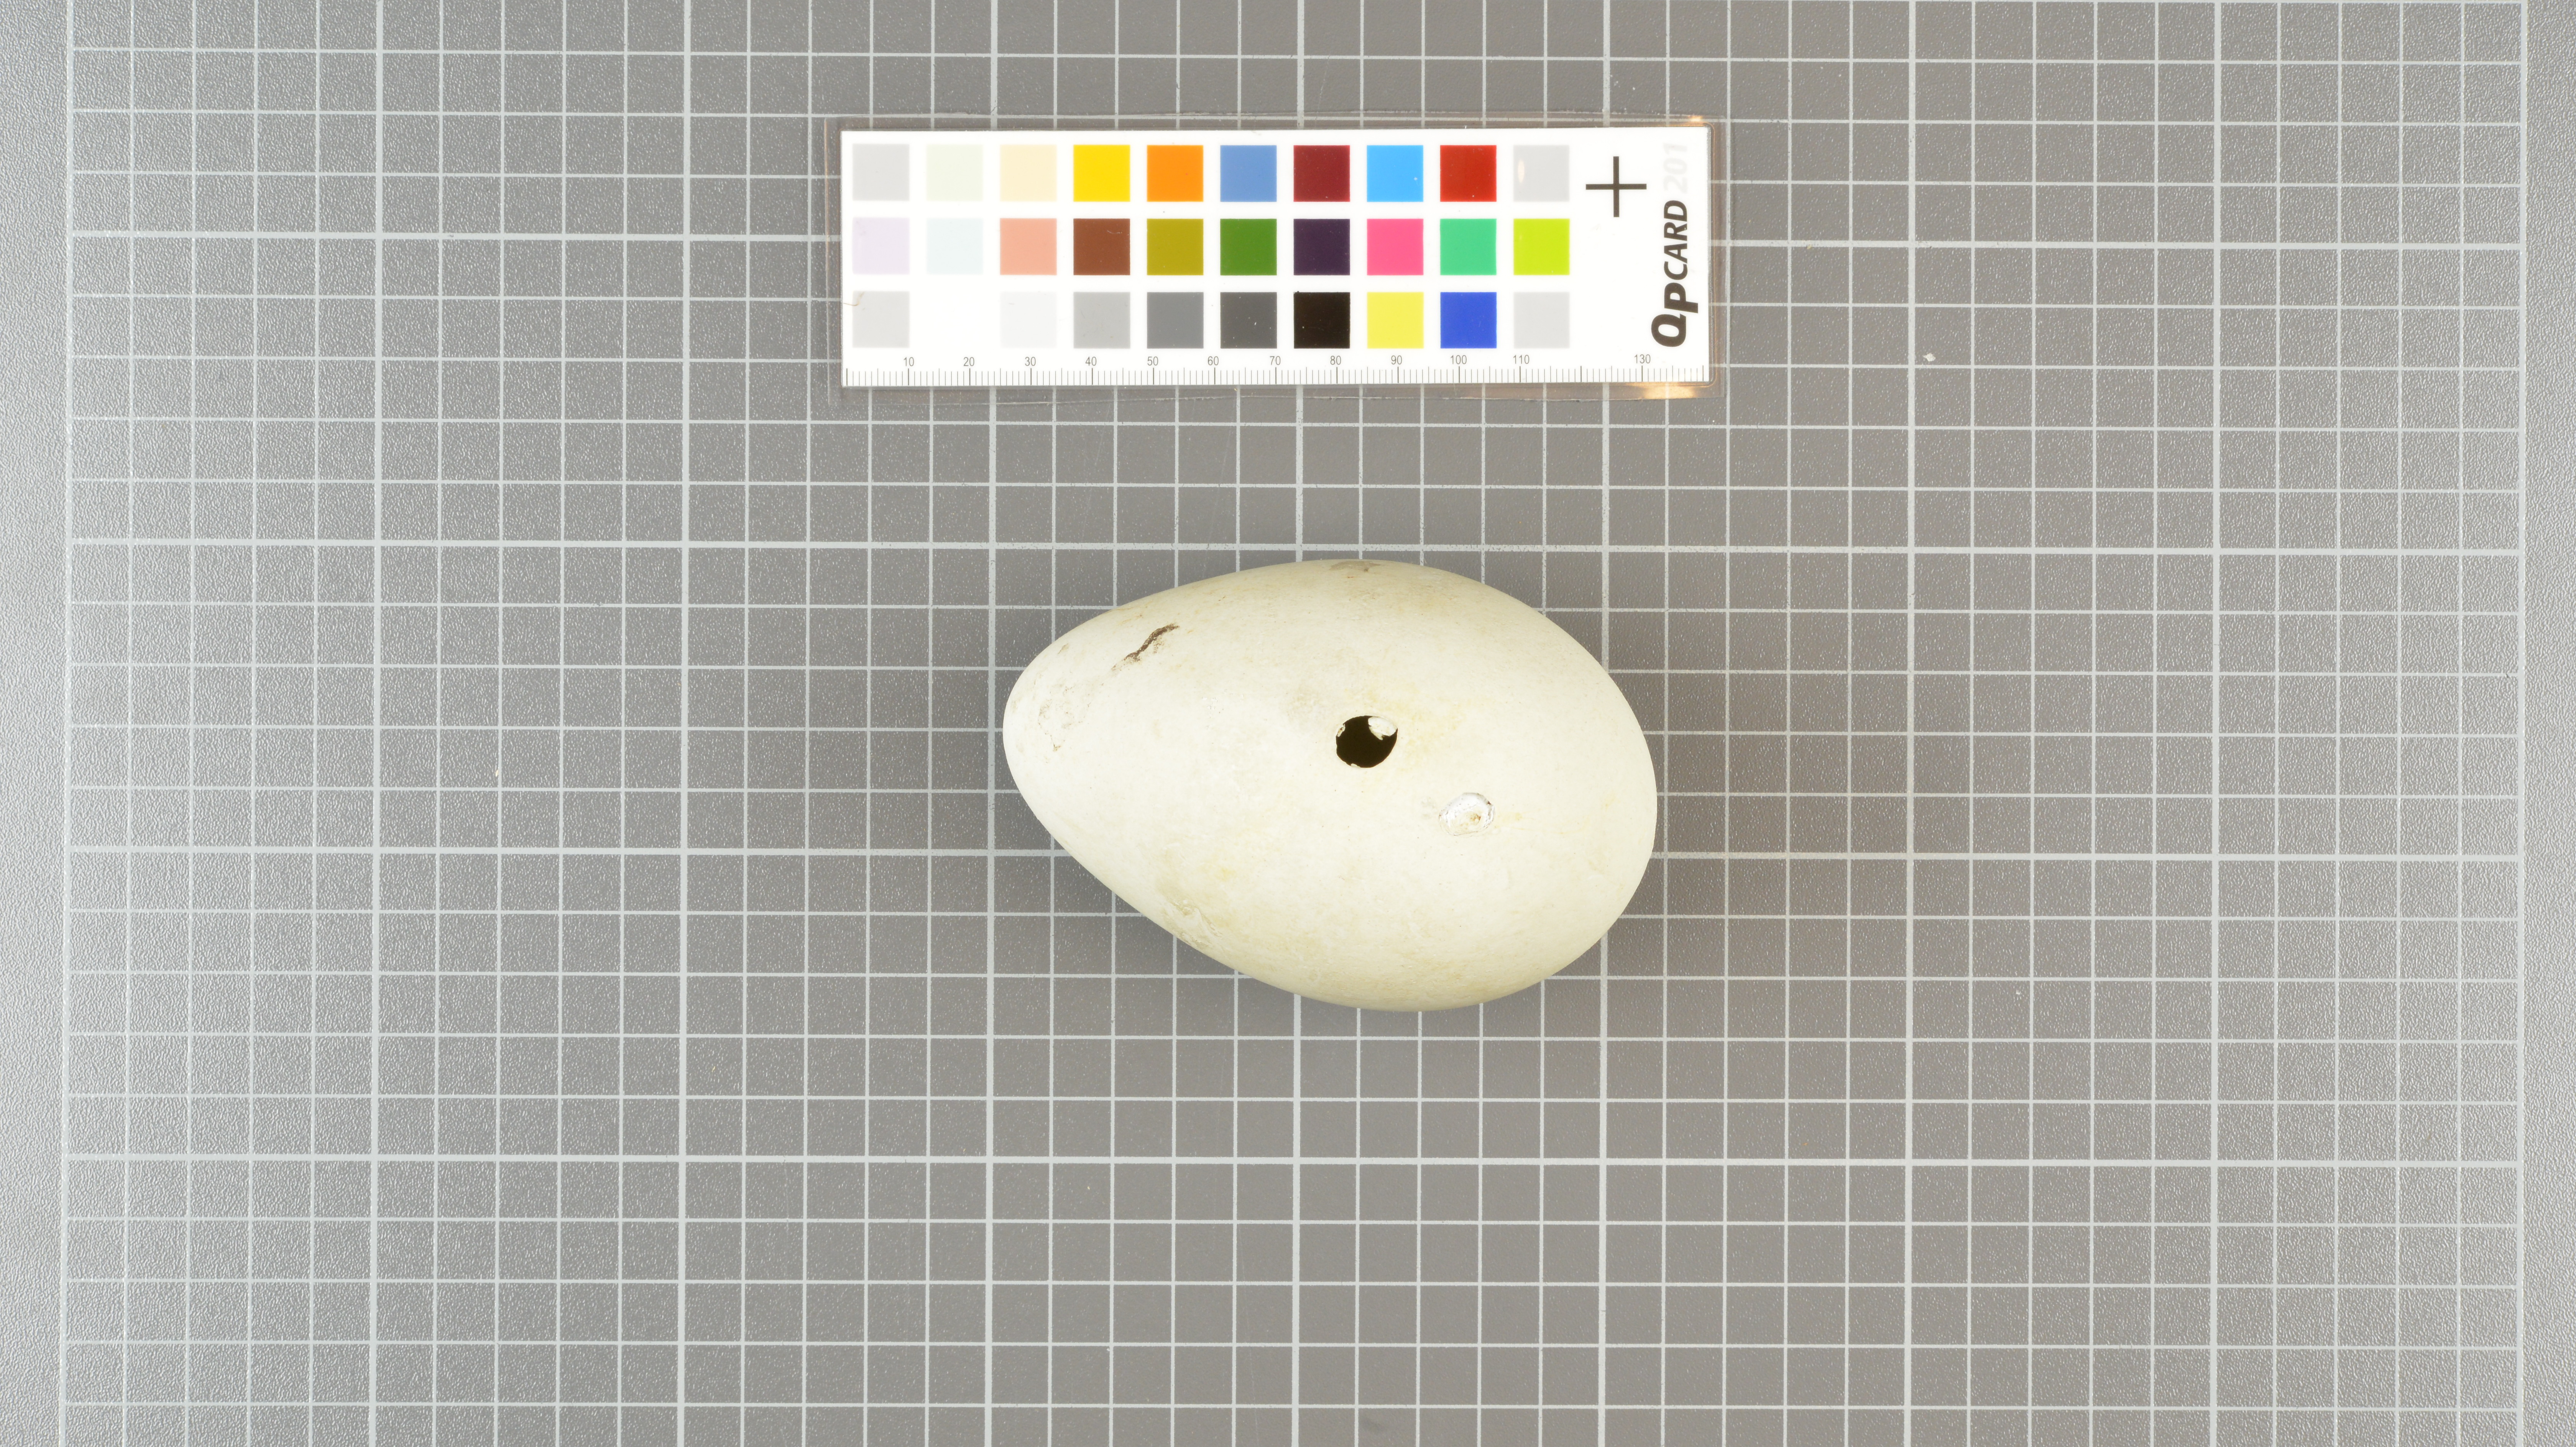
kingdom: Animalia
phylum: Chordata
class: Aves
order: Sphenisciformes
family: Spheniscidae
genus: Aptenodytes
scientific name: Aptenodytes patagonicus
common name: King penguin
